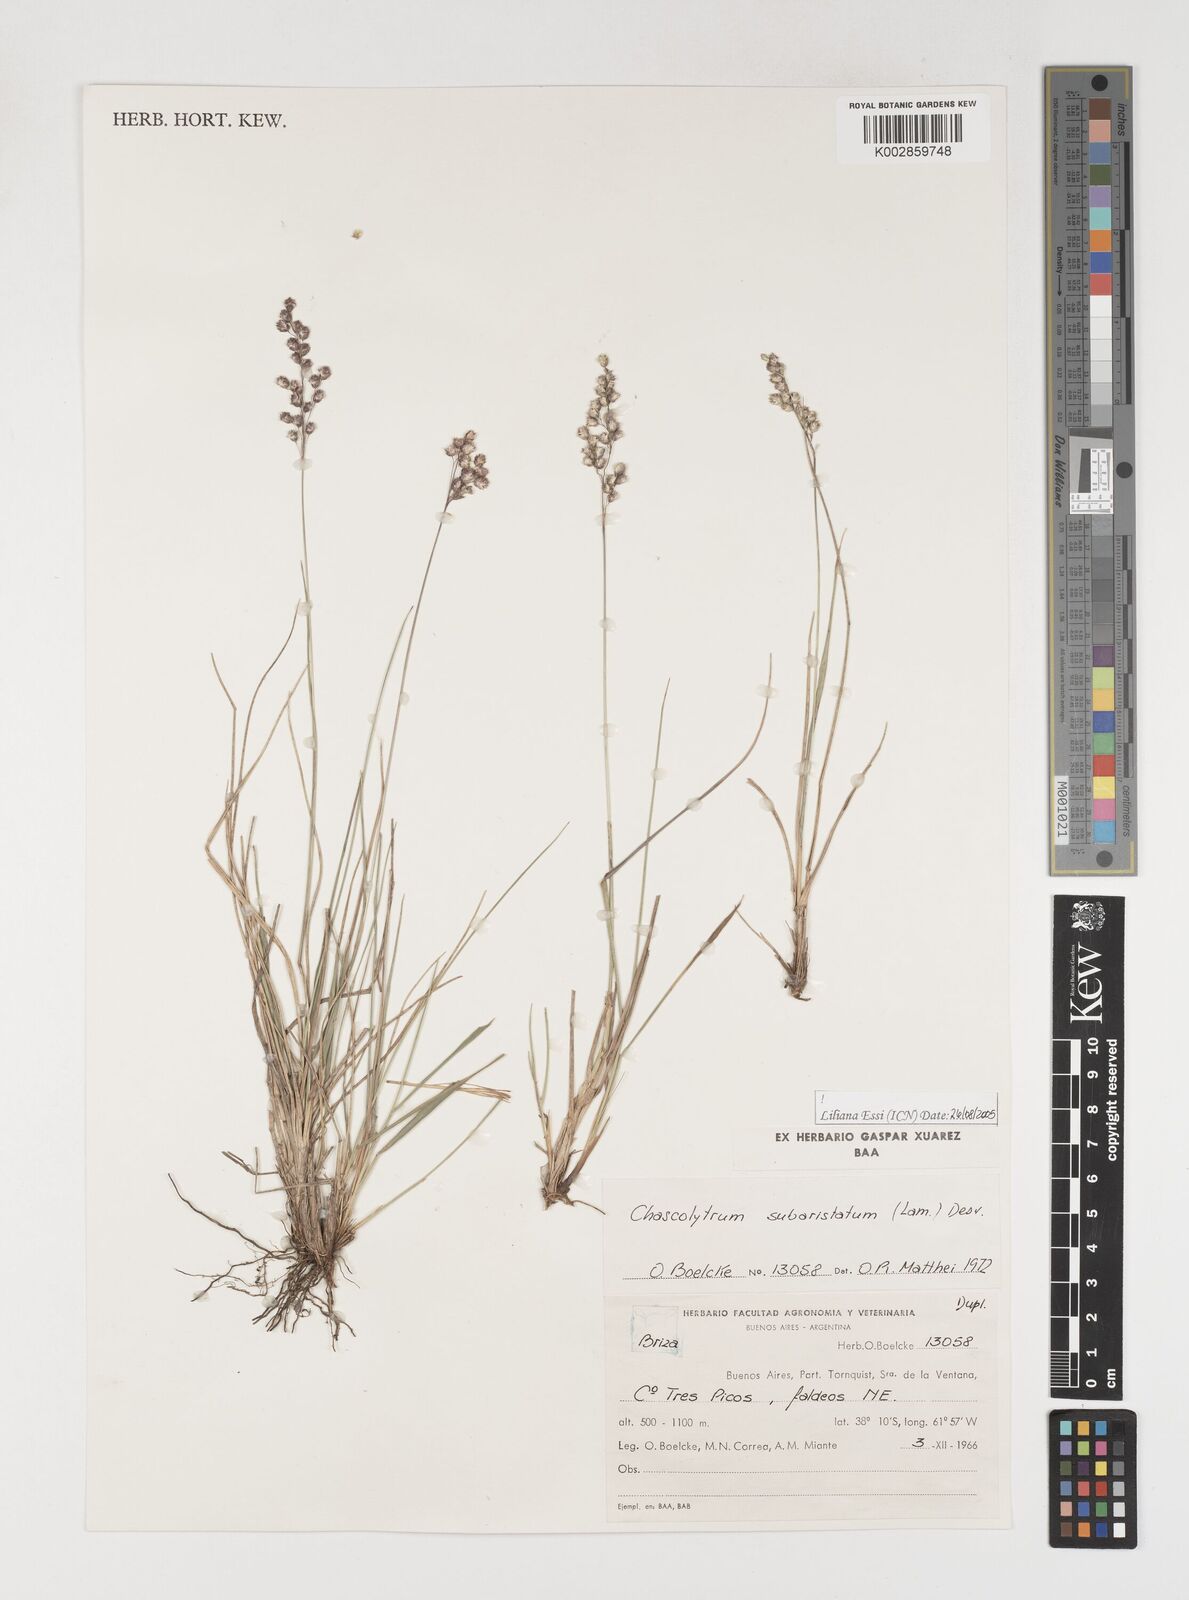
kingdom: Plantae
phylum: Tracheophyta
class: Liliopsida
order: Poales
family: Poaceae
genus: Chascolytrum
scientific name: Chascolytrum subaristatum
